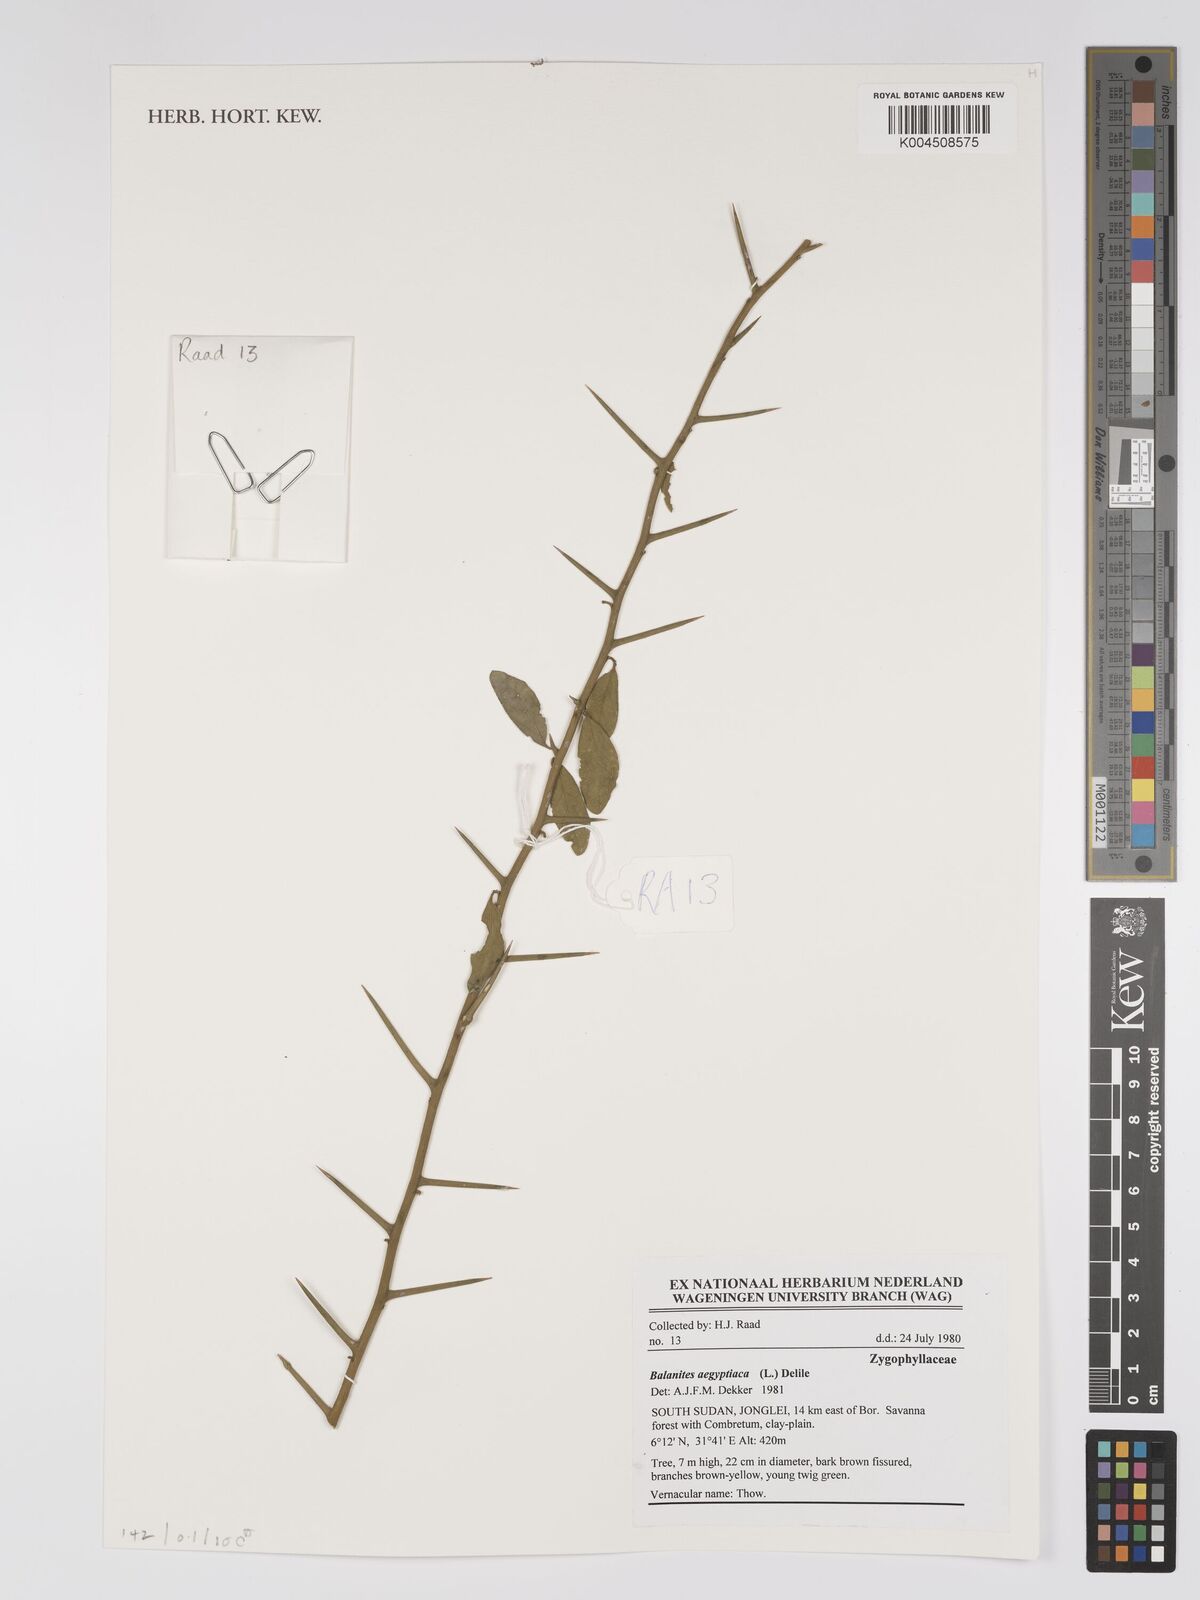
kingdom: Plantae
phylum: Tracheophyta
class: Magnoliopsida
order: Zygophyllales
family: Zygophyllaceae
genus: Balanites
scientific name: Balanites
